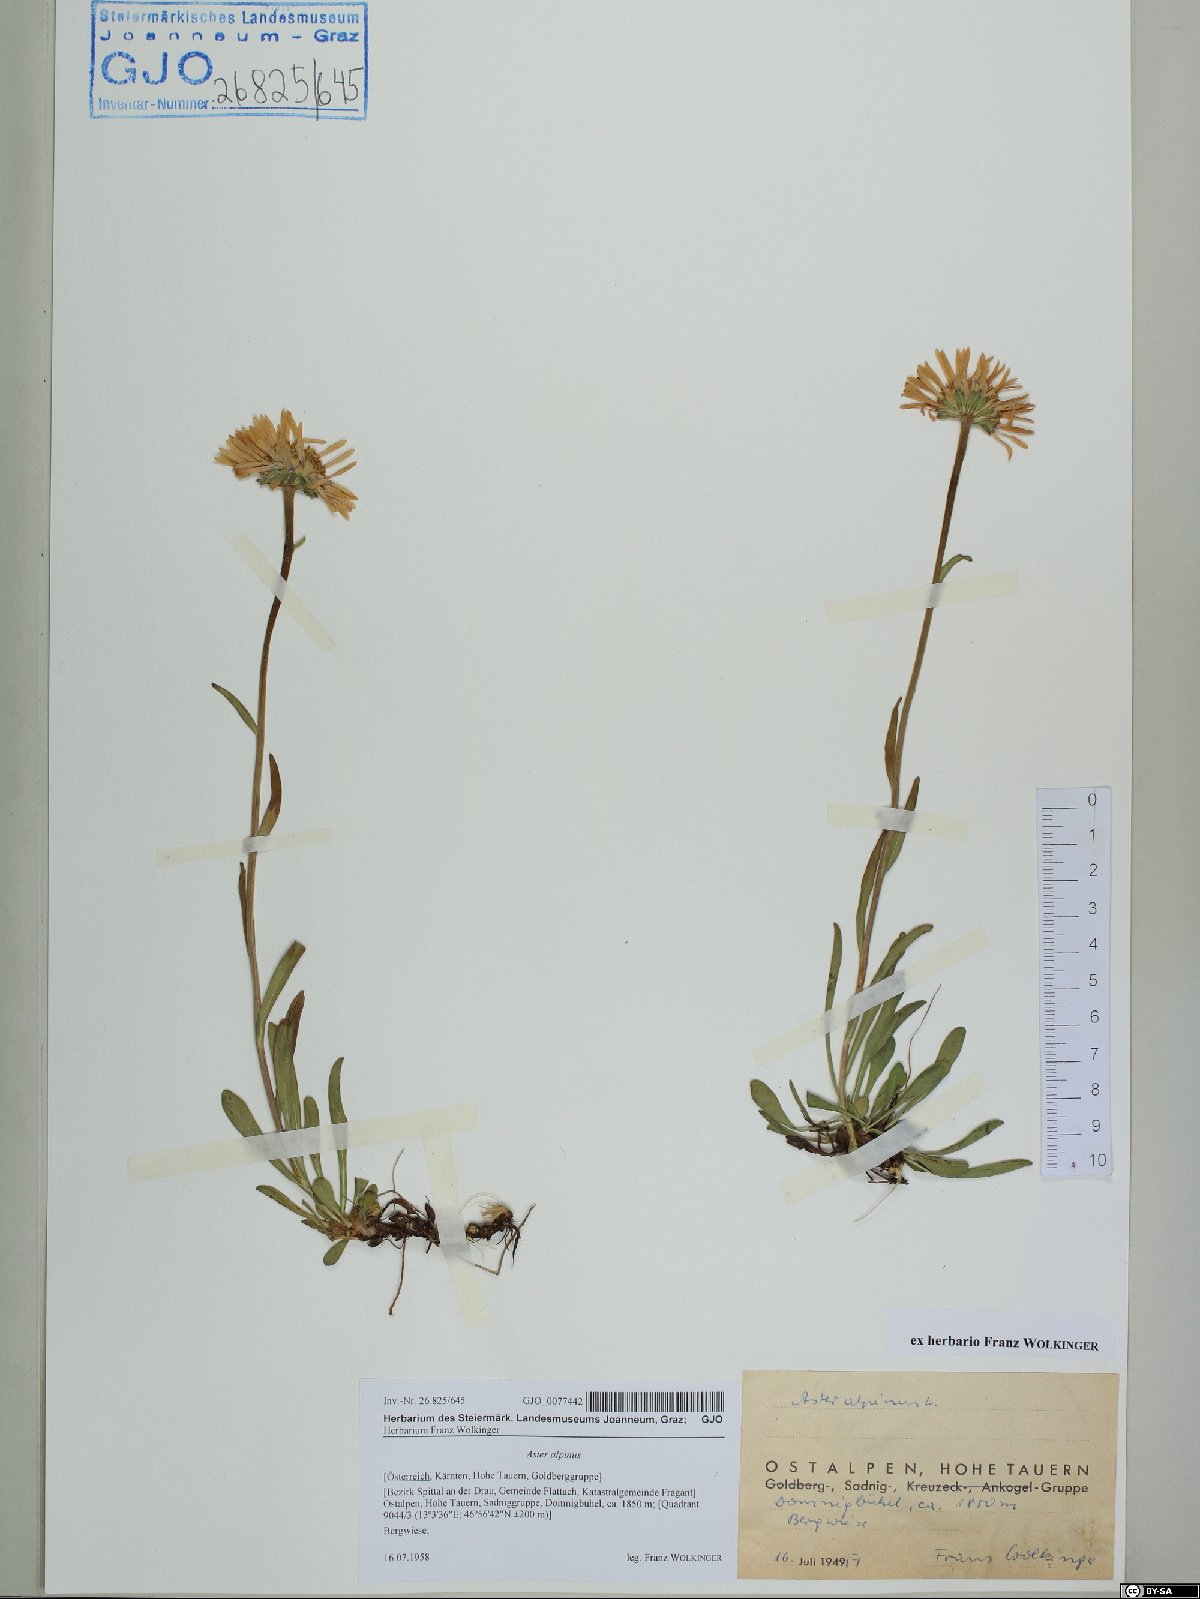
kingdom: Plantae
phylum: Tracheophyta
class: Magnoliopsida
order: Asterales
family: Asteraceae
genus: Aster
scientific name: Aster alpinus
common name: Alpine aster
